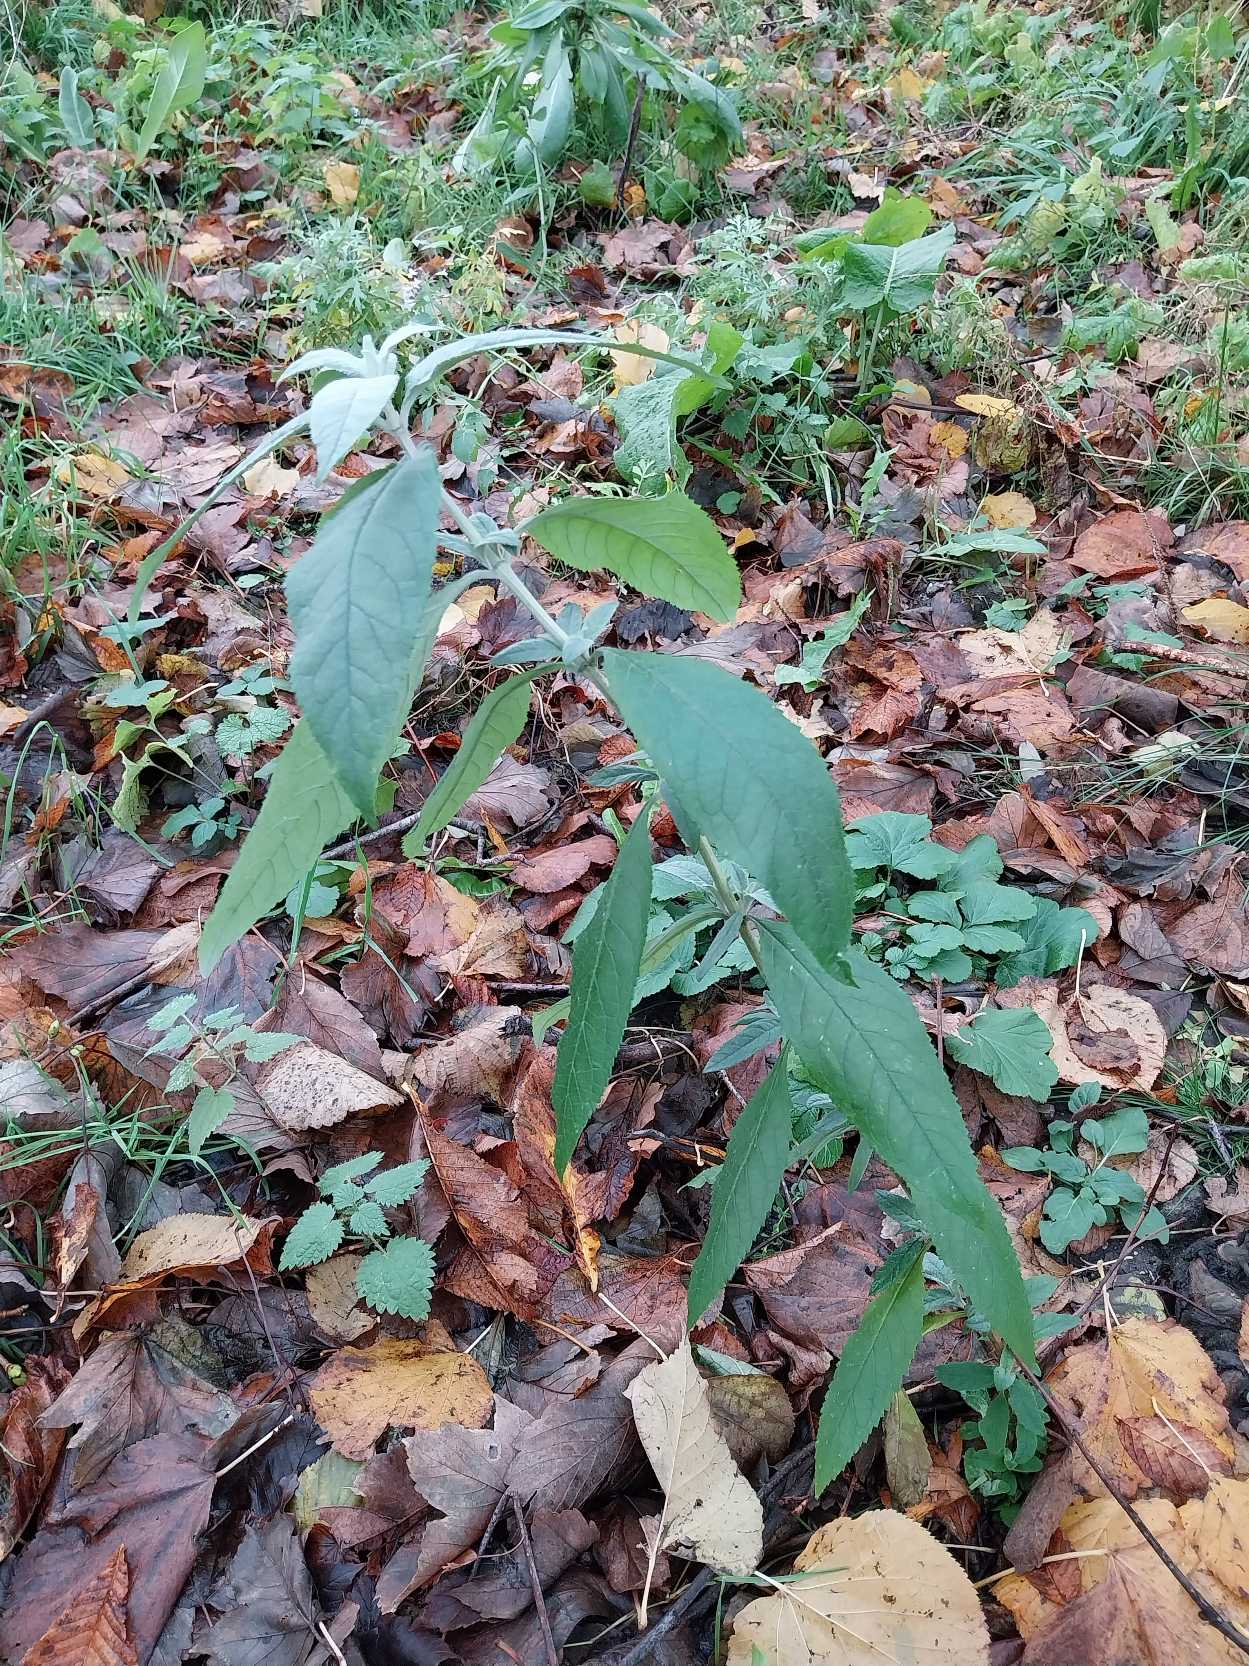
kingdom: Plantae
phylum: Tracheophyta
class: Magnoliopsida
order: Lamiales
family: Scrophulariaceae
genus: Buddleja
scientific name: Buddleja davidii
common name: Sommerfuglebusk
